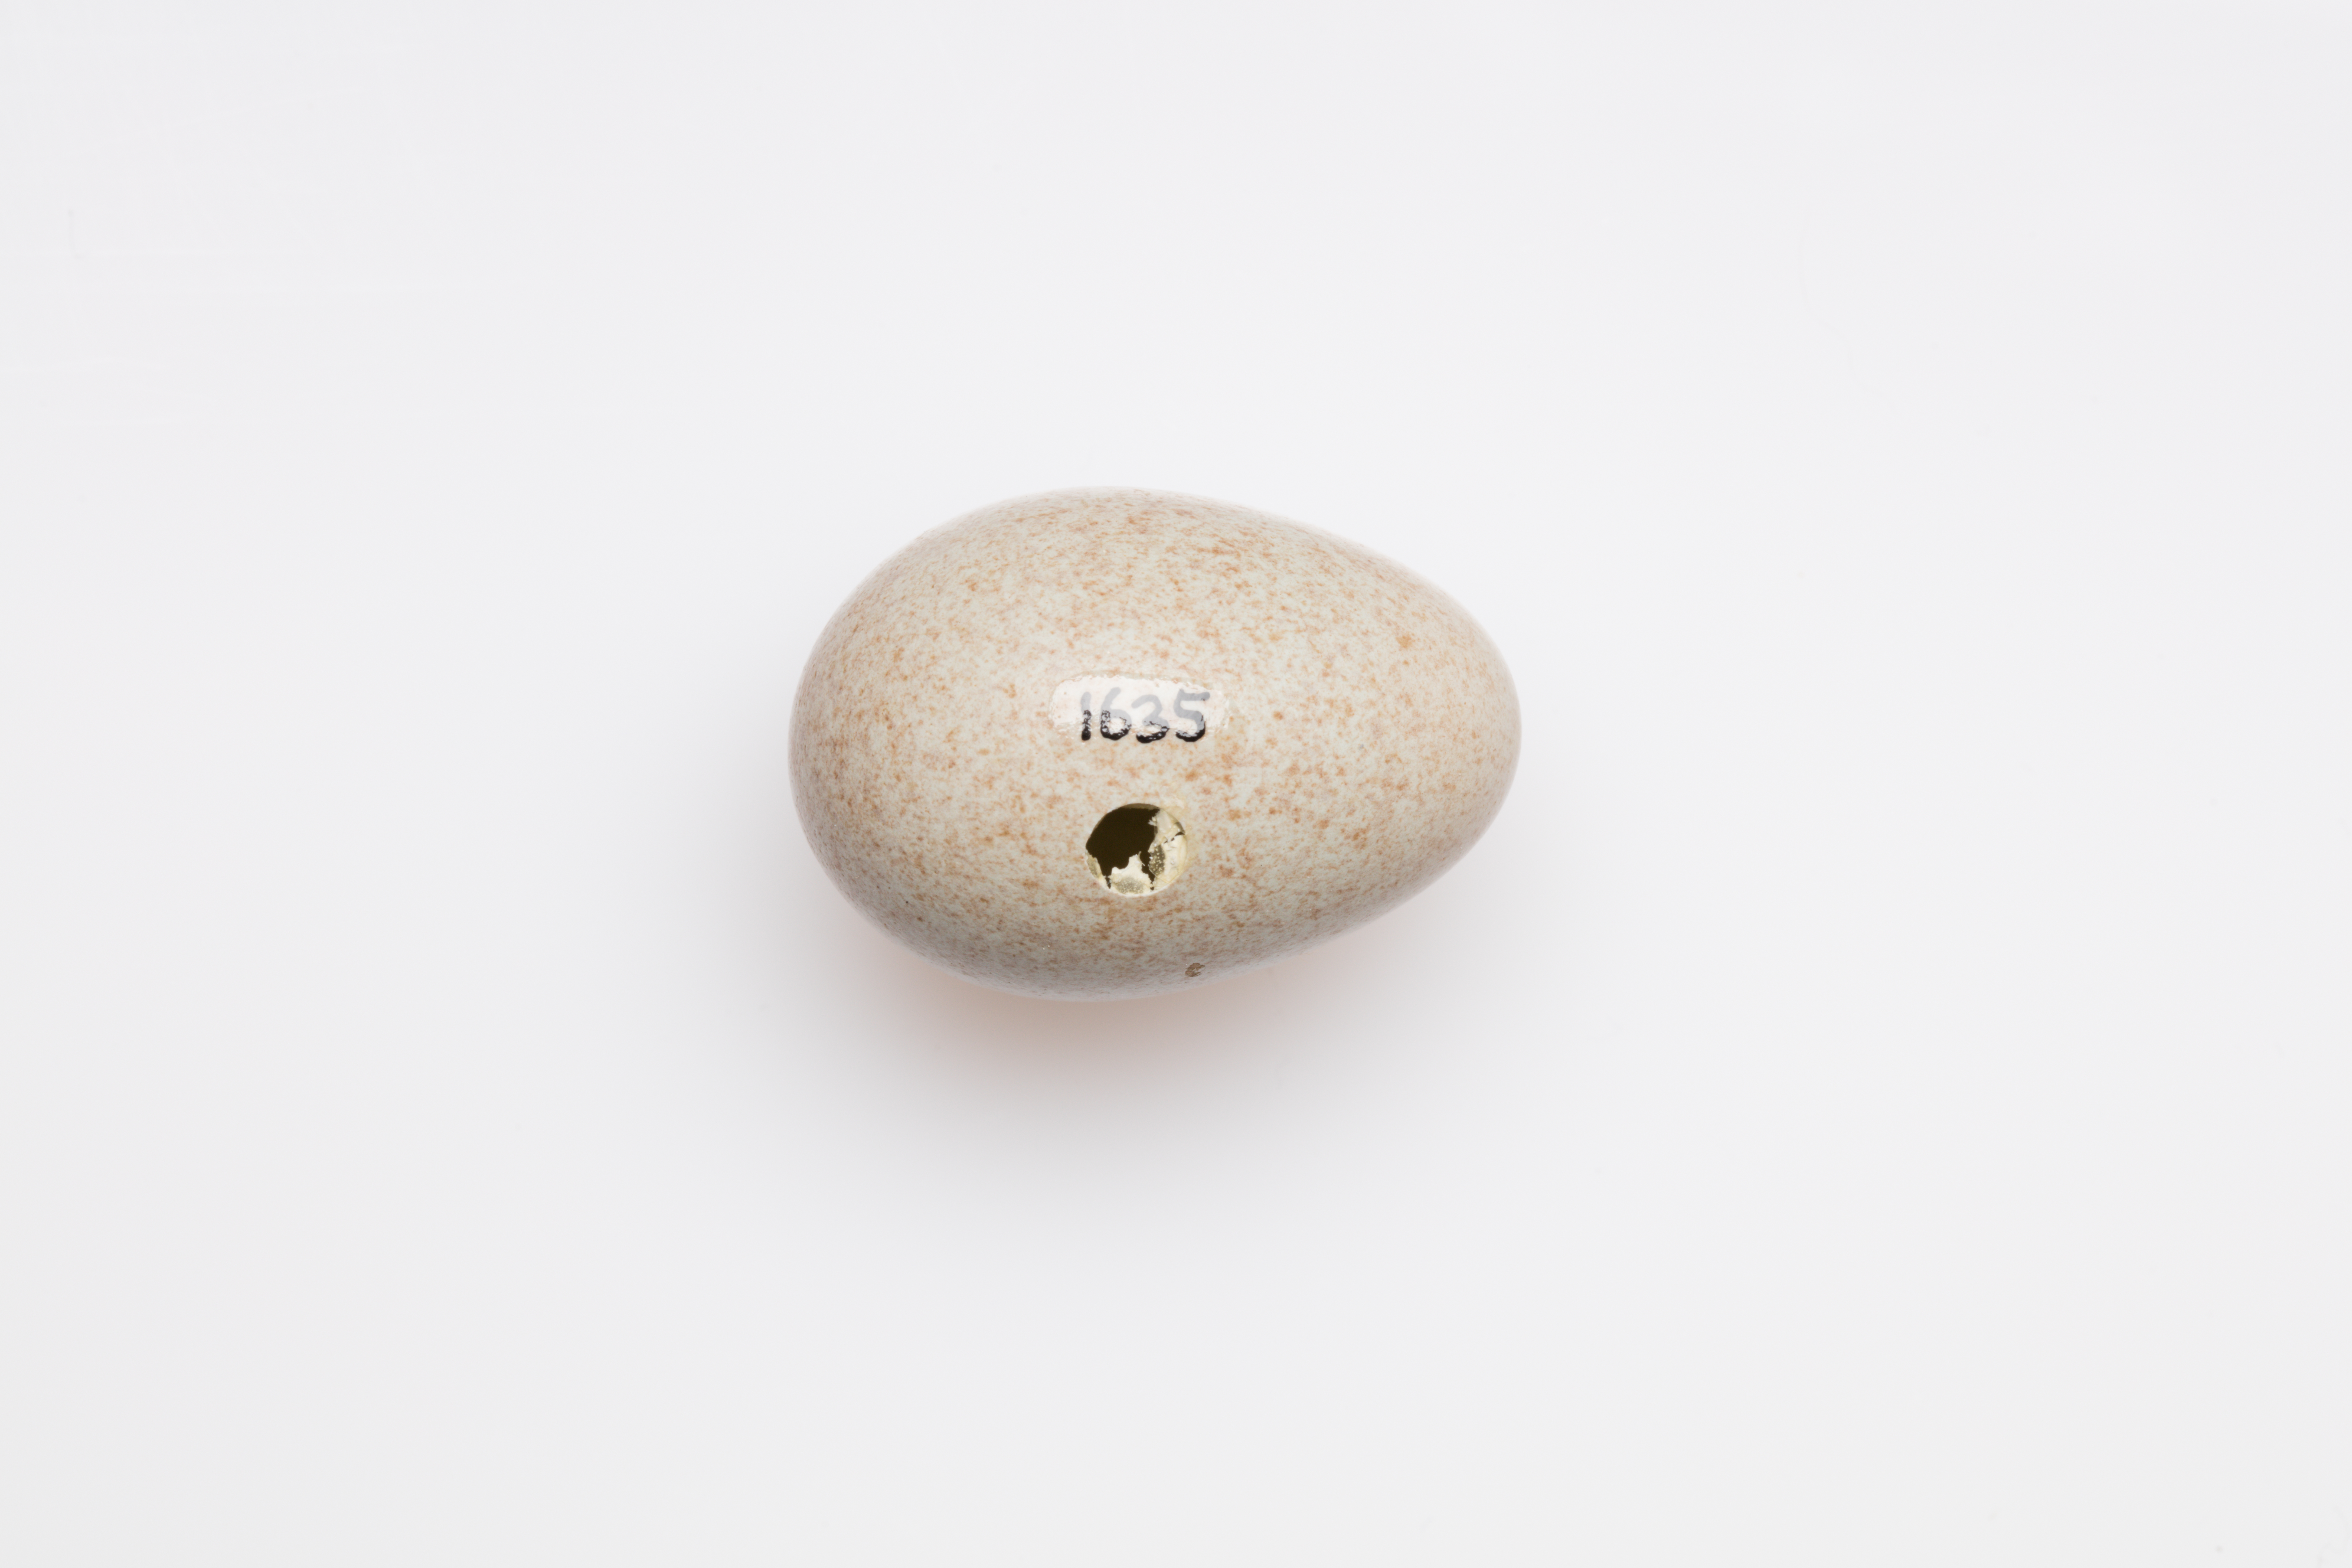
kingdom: Animalia
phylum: Chordata
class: Aves
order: Passeriformes
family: Turdidae
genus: Turdus
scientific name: Turdus merula
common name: Common blackbird
